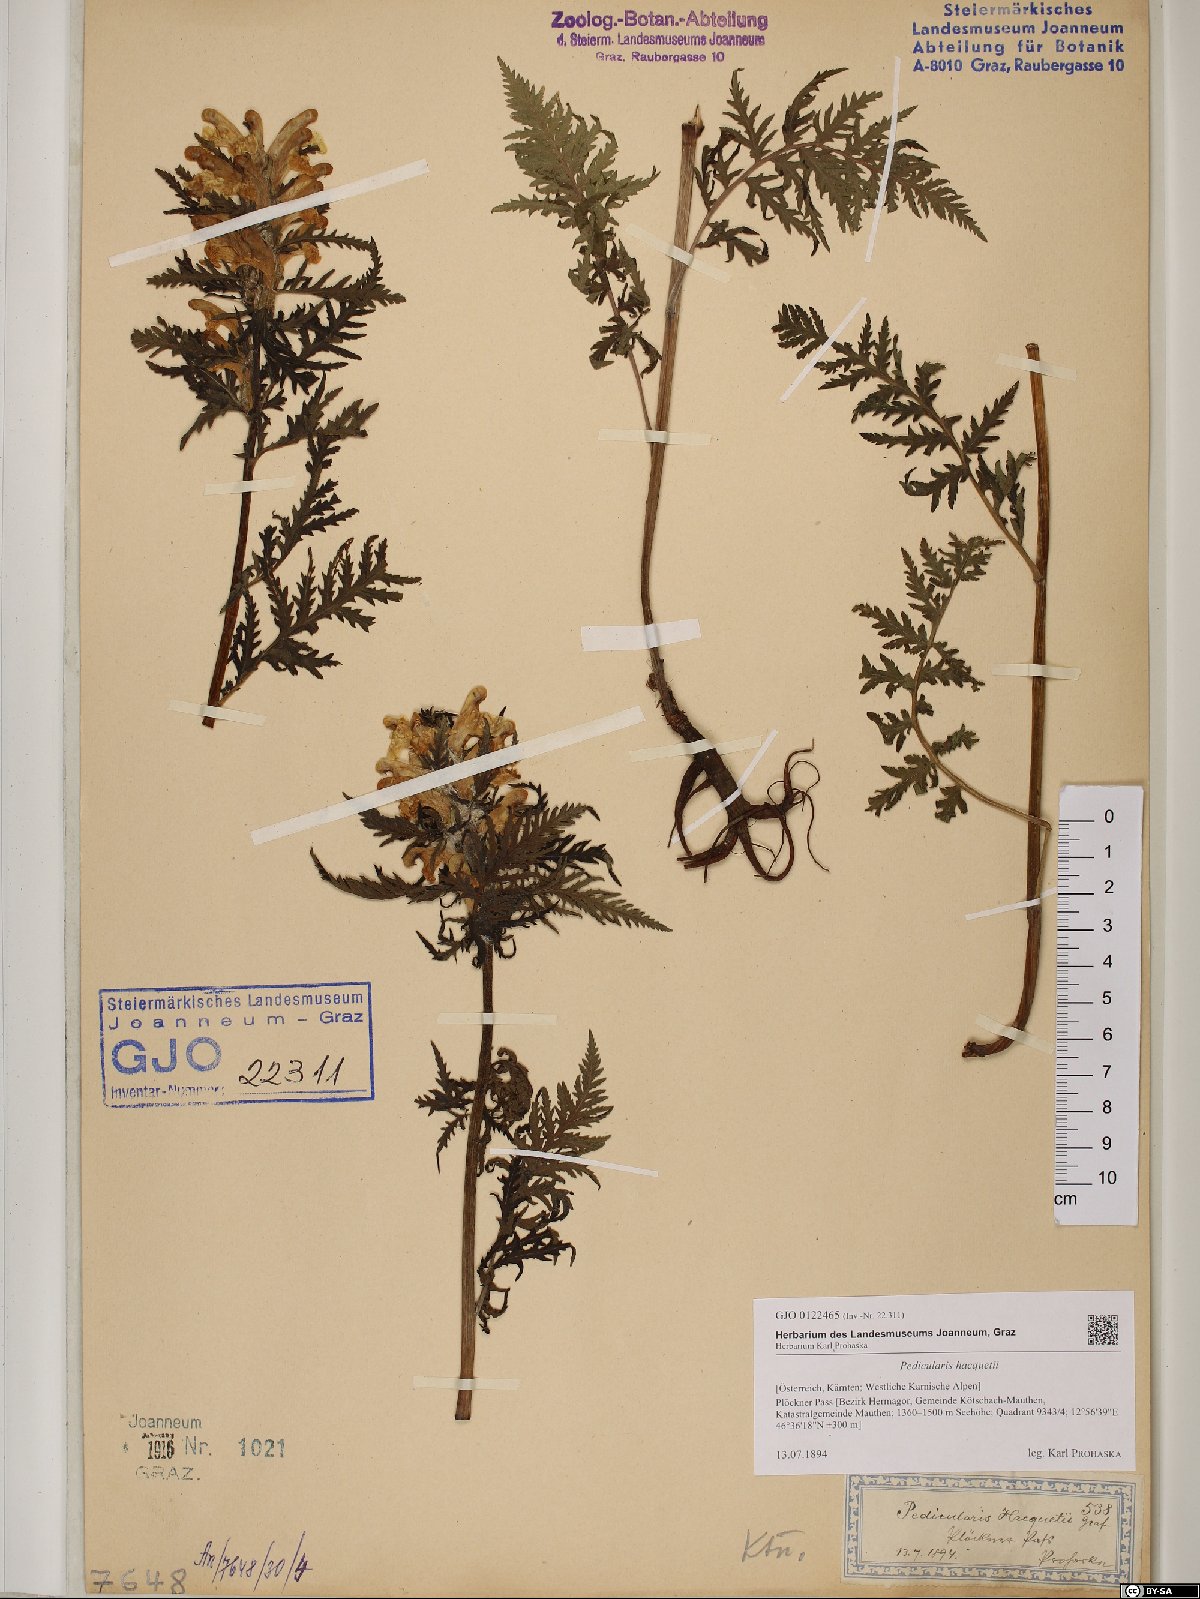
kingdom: Plantae
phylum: Tracheophyta
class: Magnoliopsida
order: Lamiales
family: Orobanchaceae
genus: Pedicularis
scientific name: Pedicularis hacquetii
